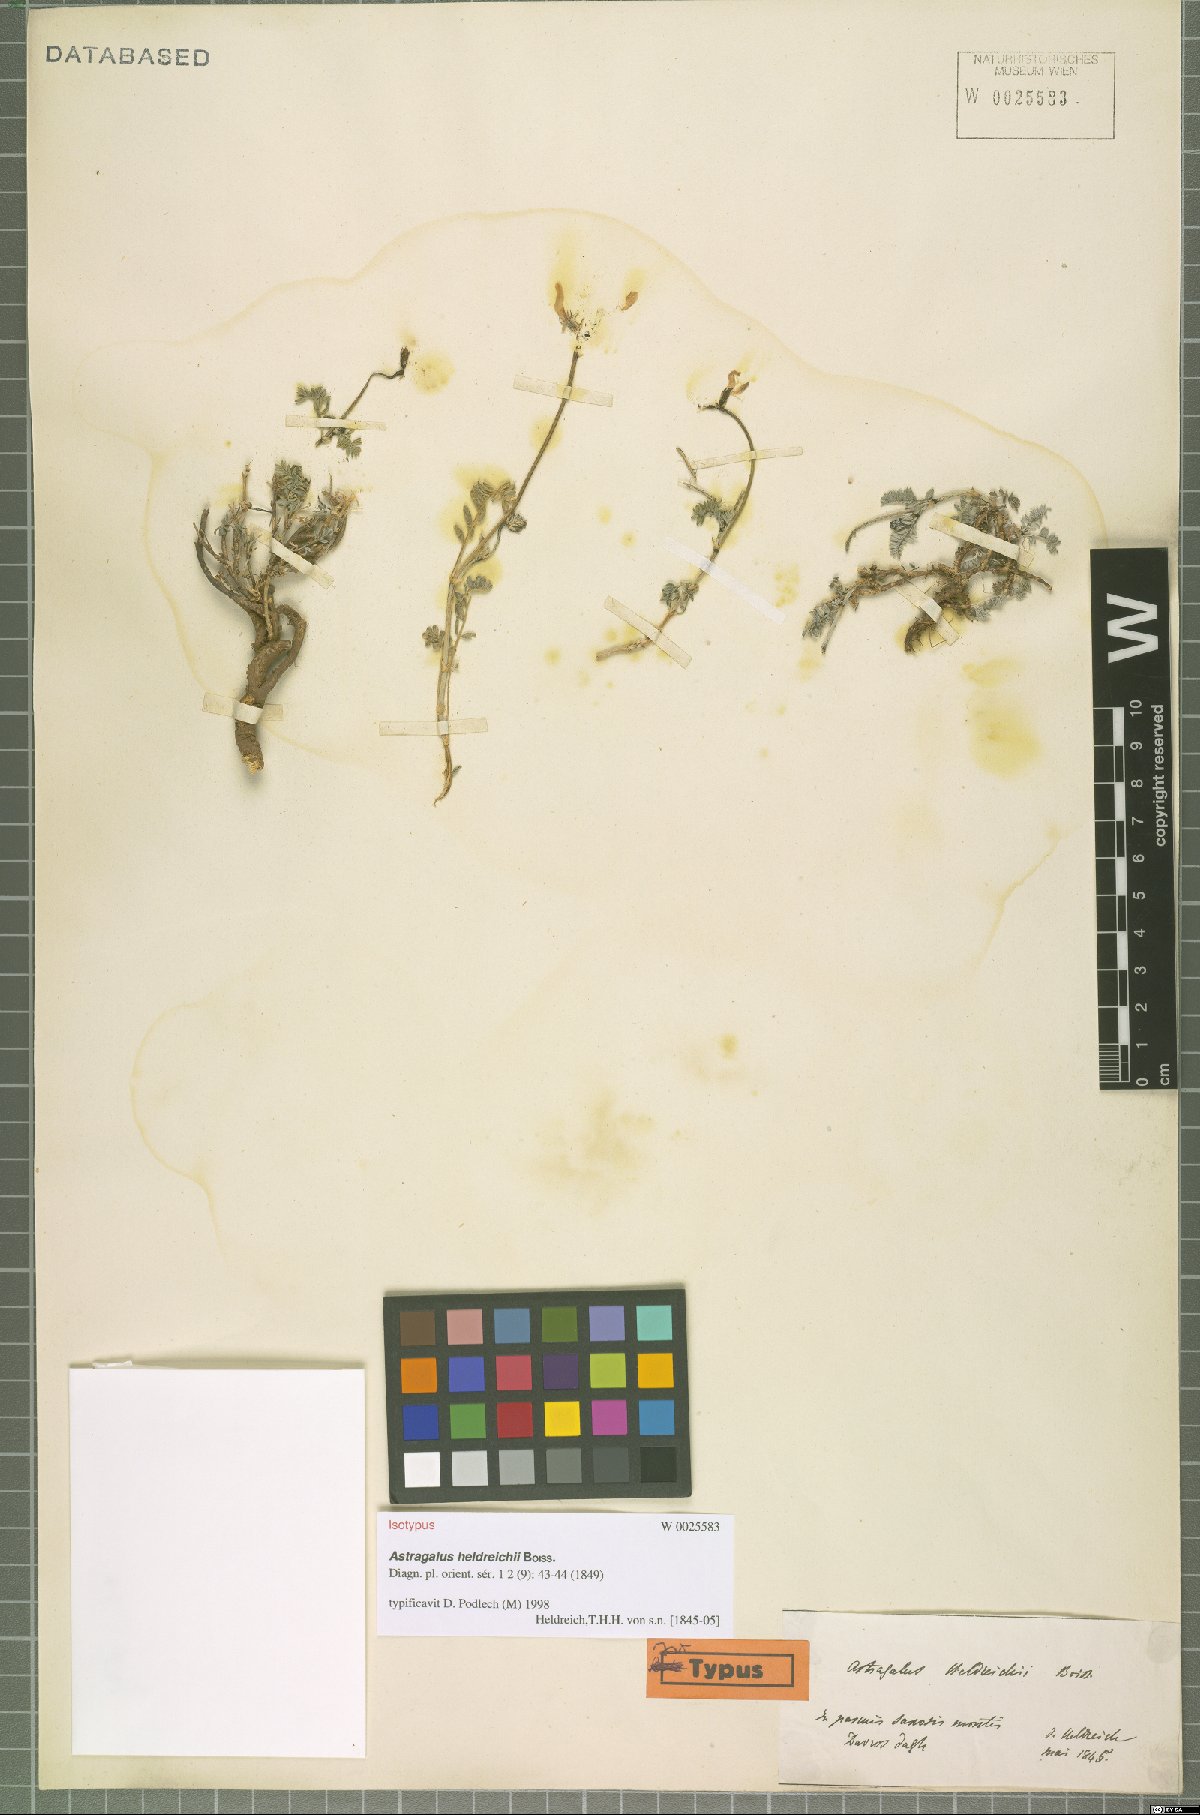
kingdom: Plantae
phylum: Tracheophyta
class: Magnoliopsida
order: Fabales
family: Fabaceae
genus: Astragalus
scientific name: Astragalus heldreichii
